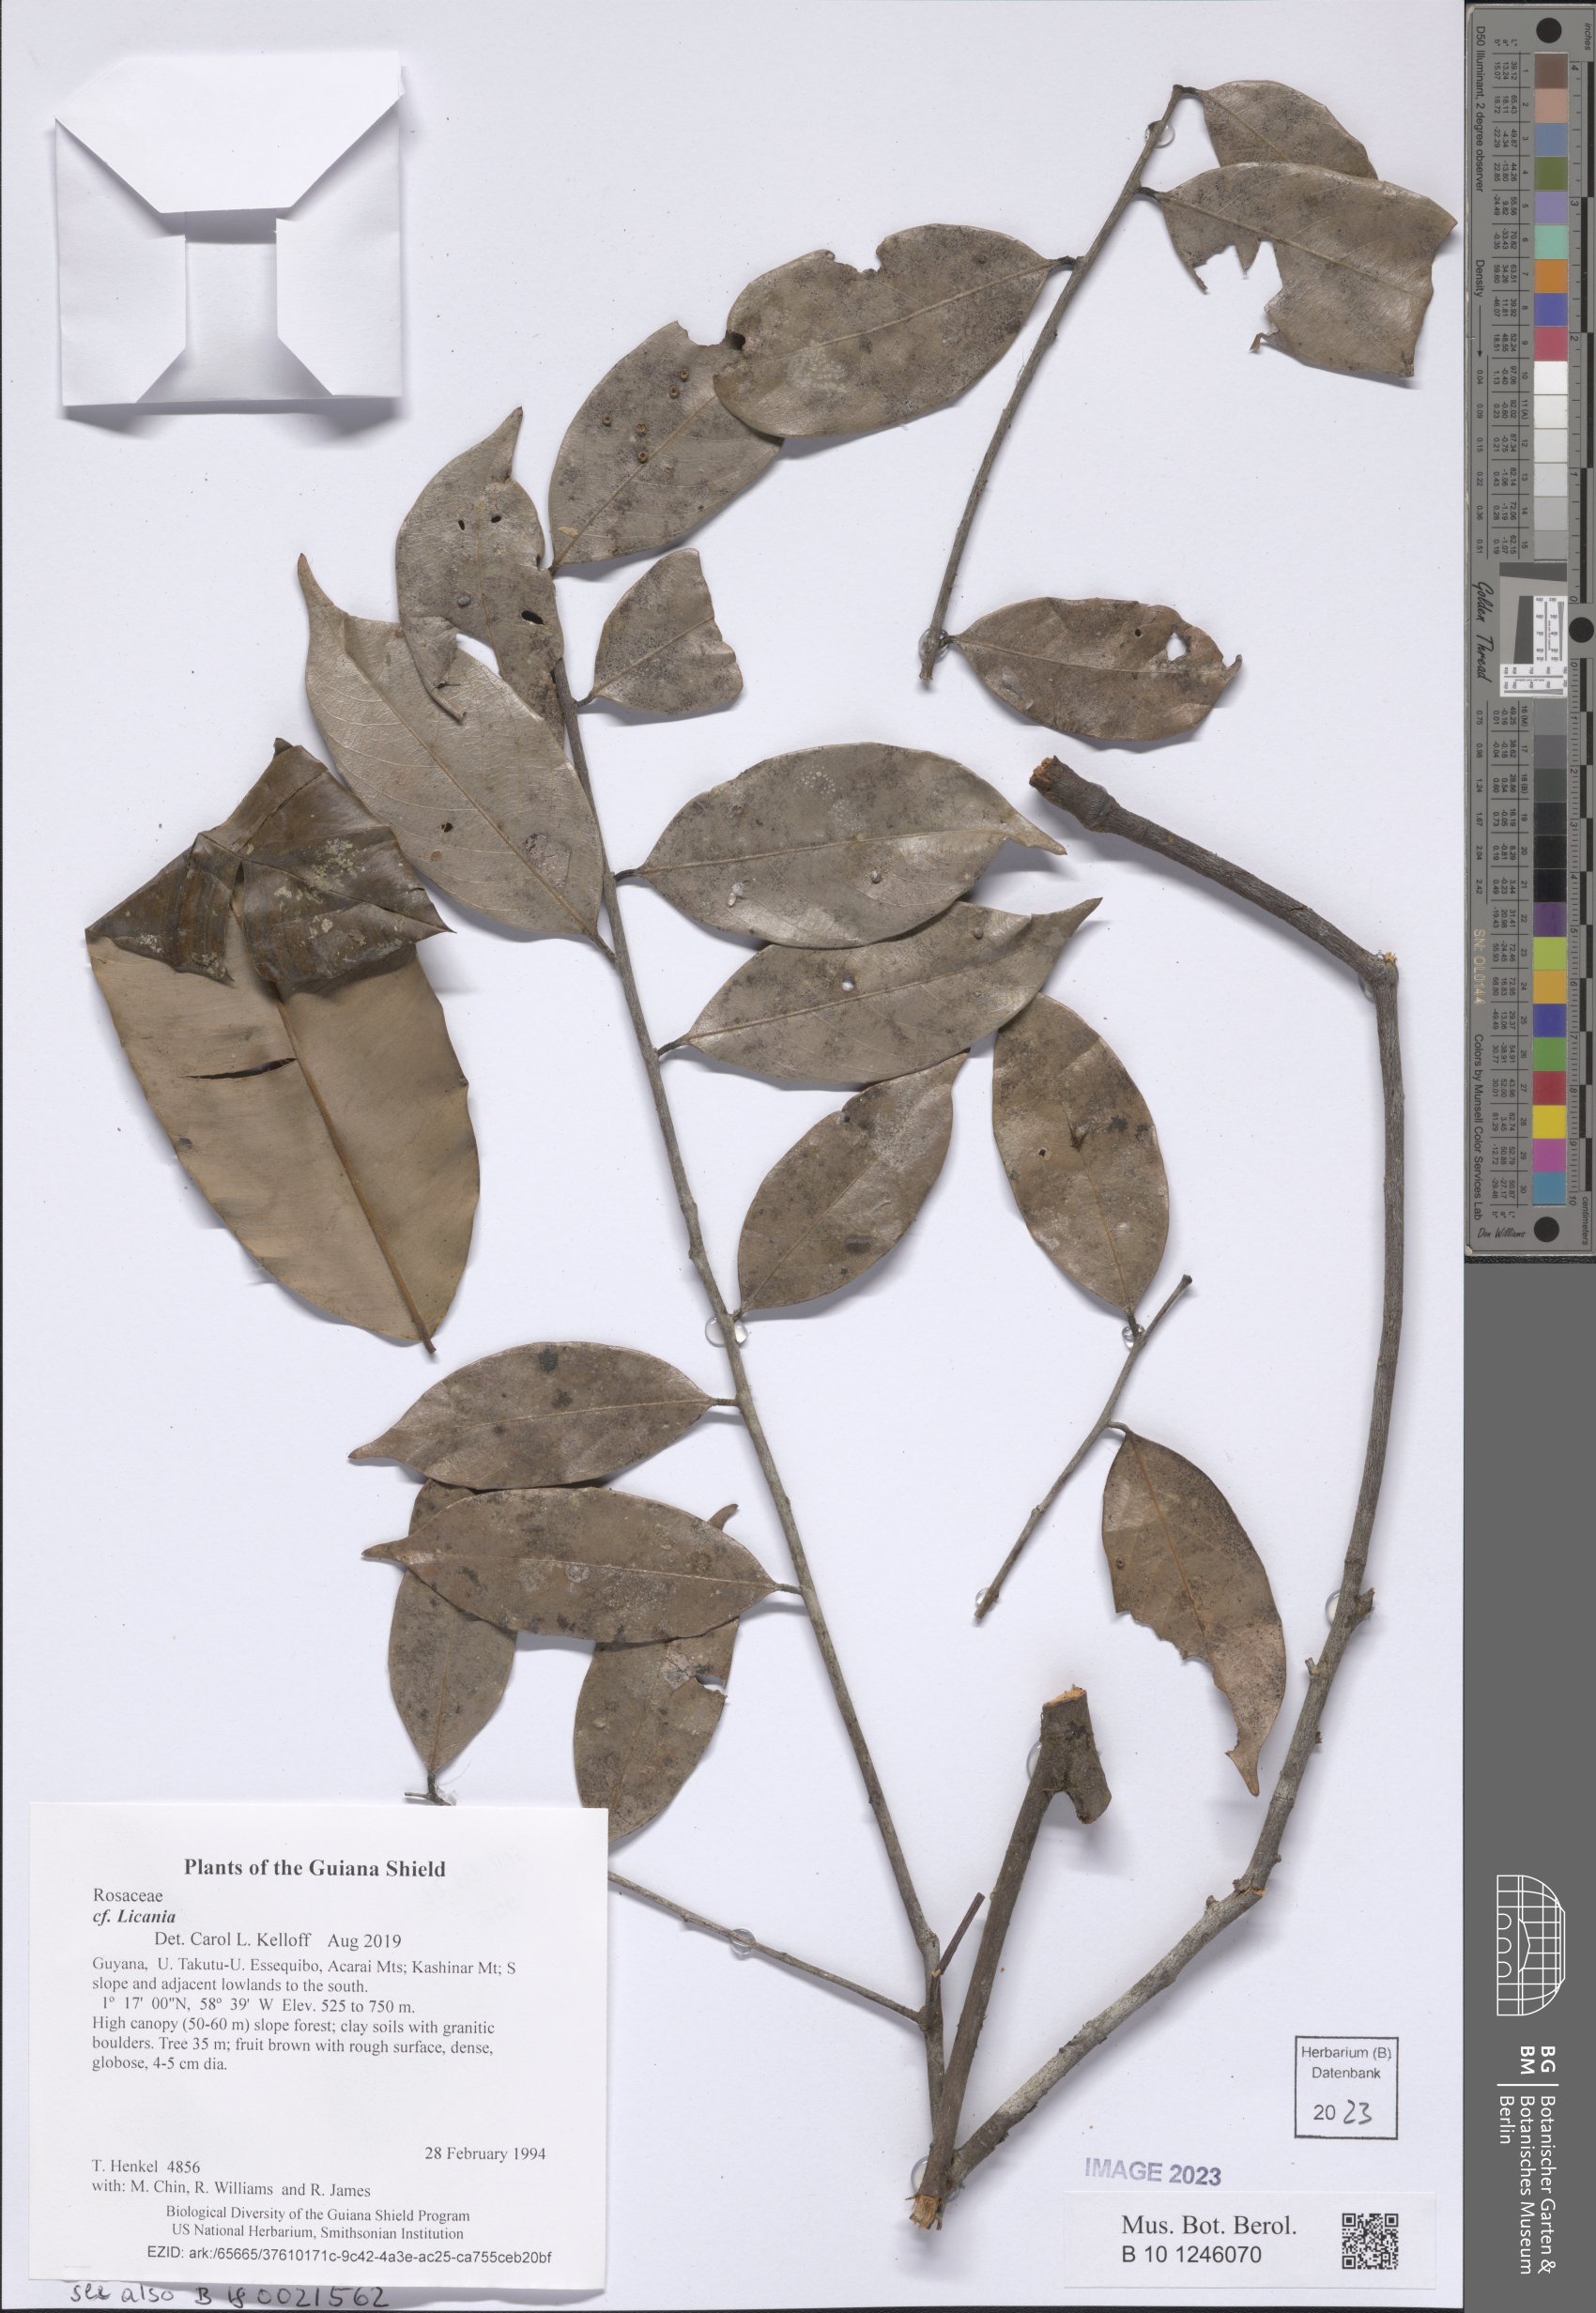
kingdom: Plantae
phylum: Tracheophyta
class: Magnoliopsida
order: Malpighiales
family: Chrysobalanaceae
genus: Licania
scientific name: Licania
